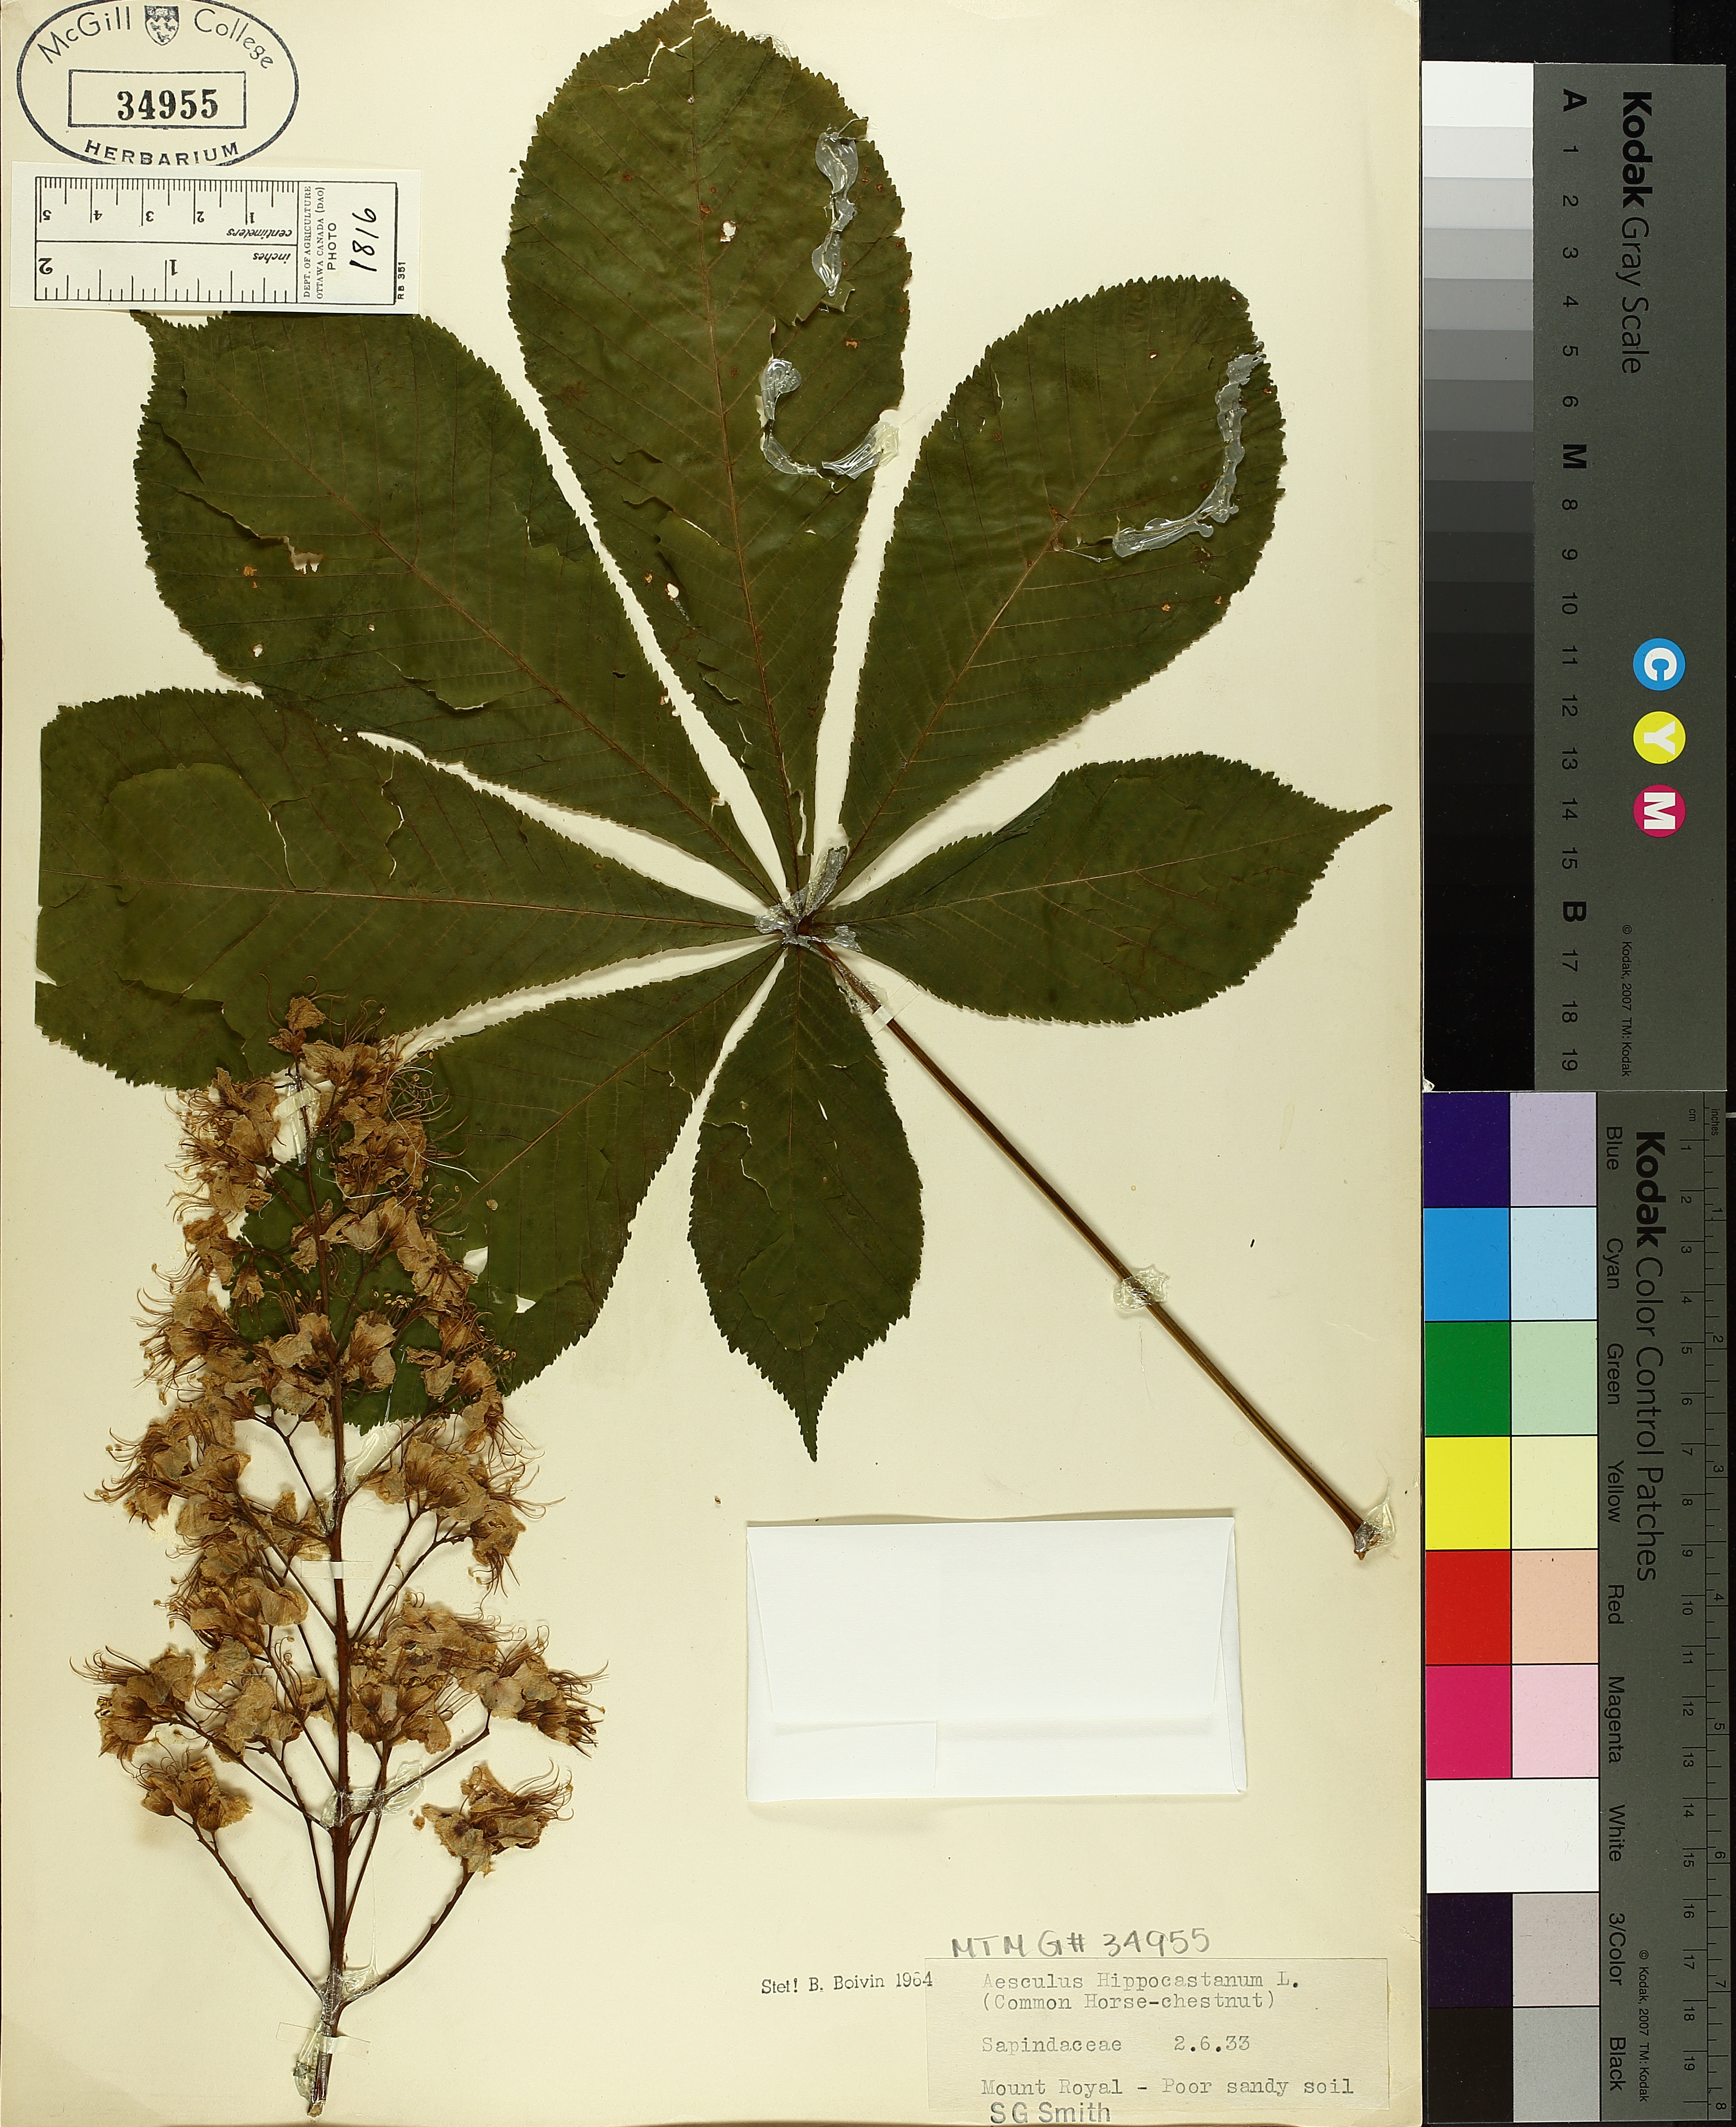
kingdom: Plantae
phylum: Tracheophyta
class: Magnoliopsida
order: Sapindales
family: Sapindaceae
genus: Aesculus
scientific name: Aesculus hippocastanum
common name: Horse-chestnut
